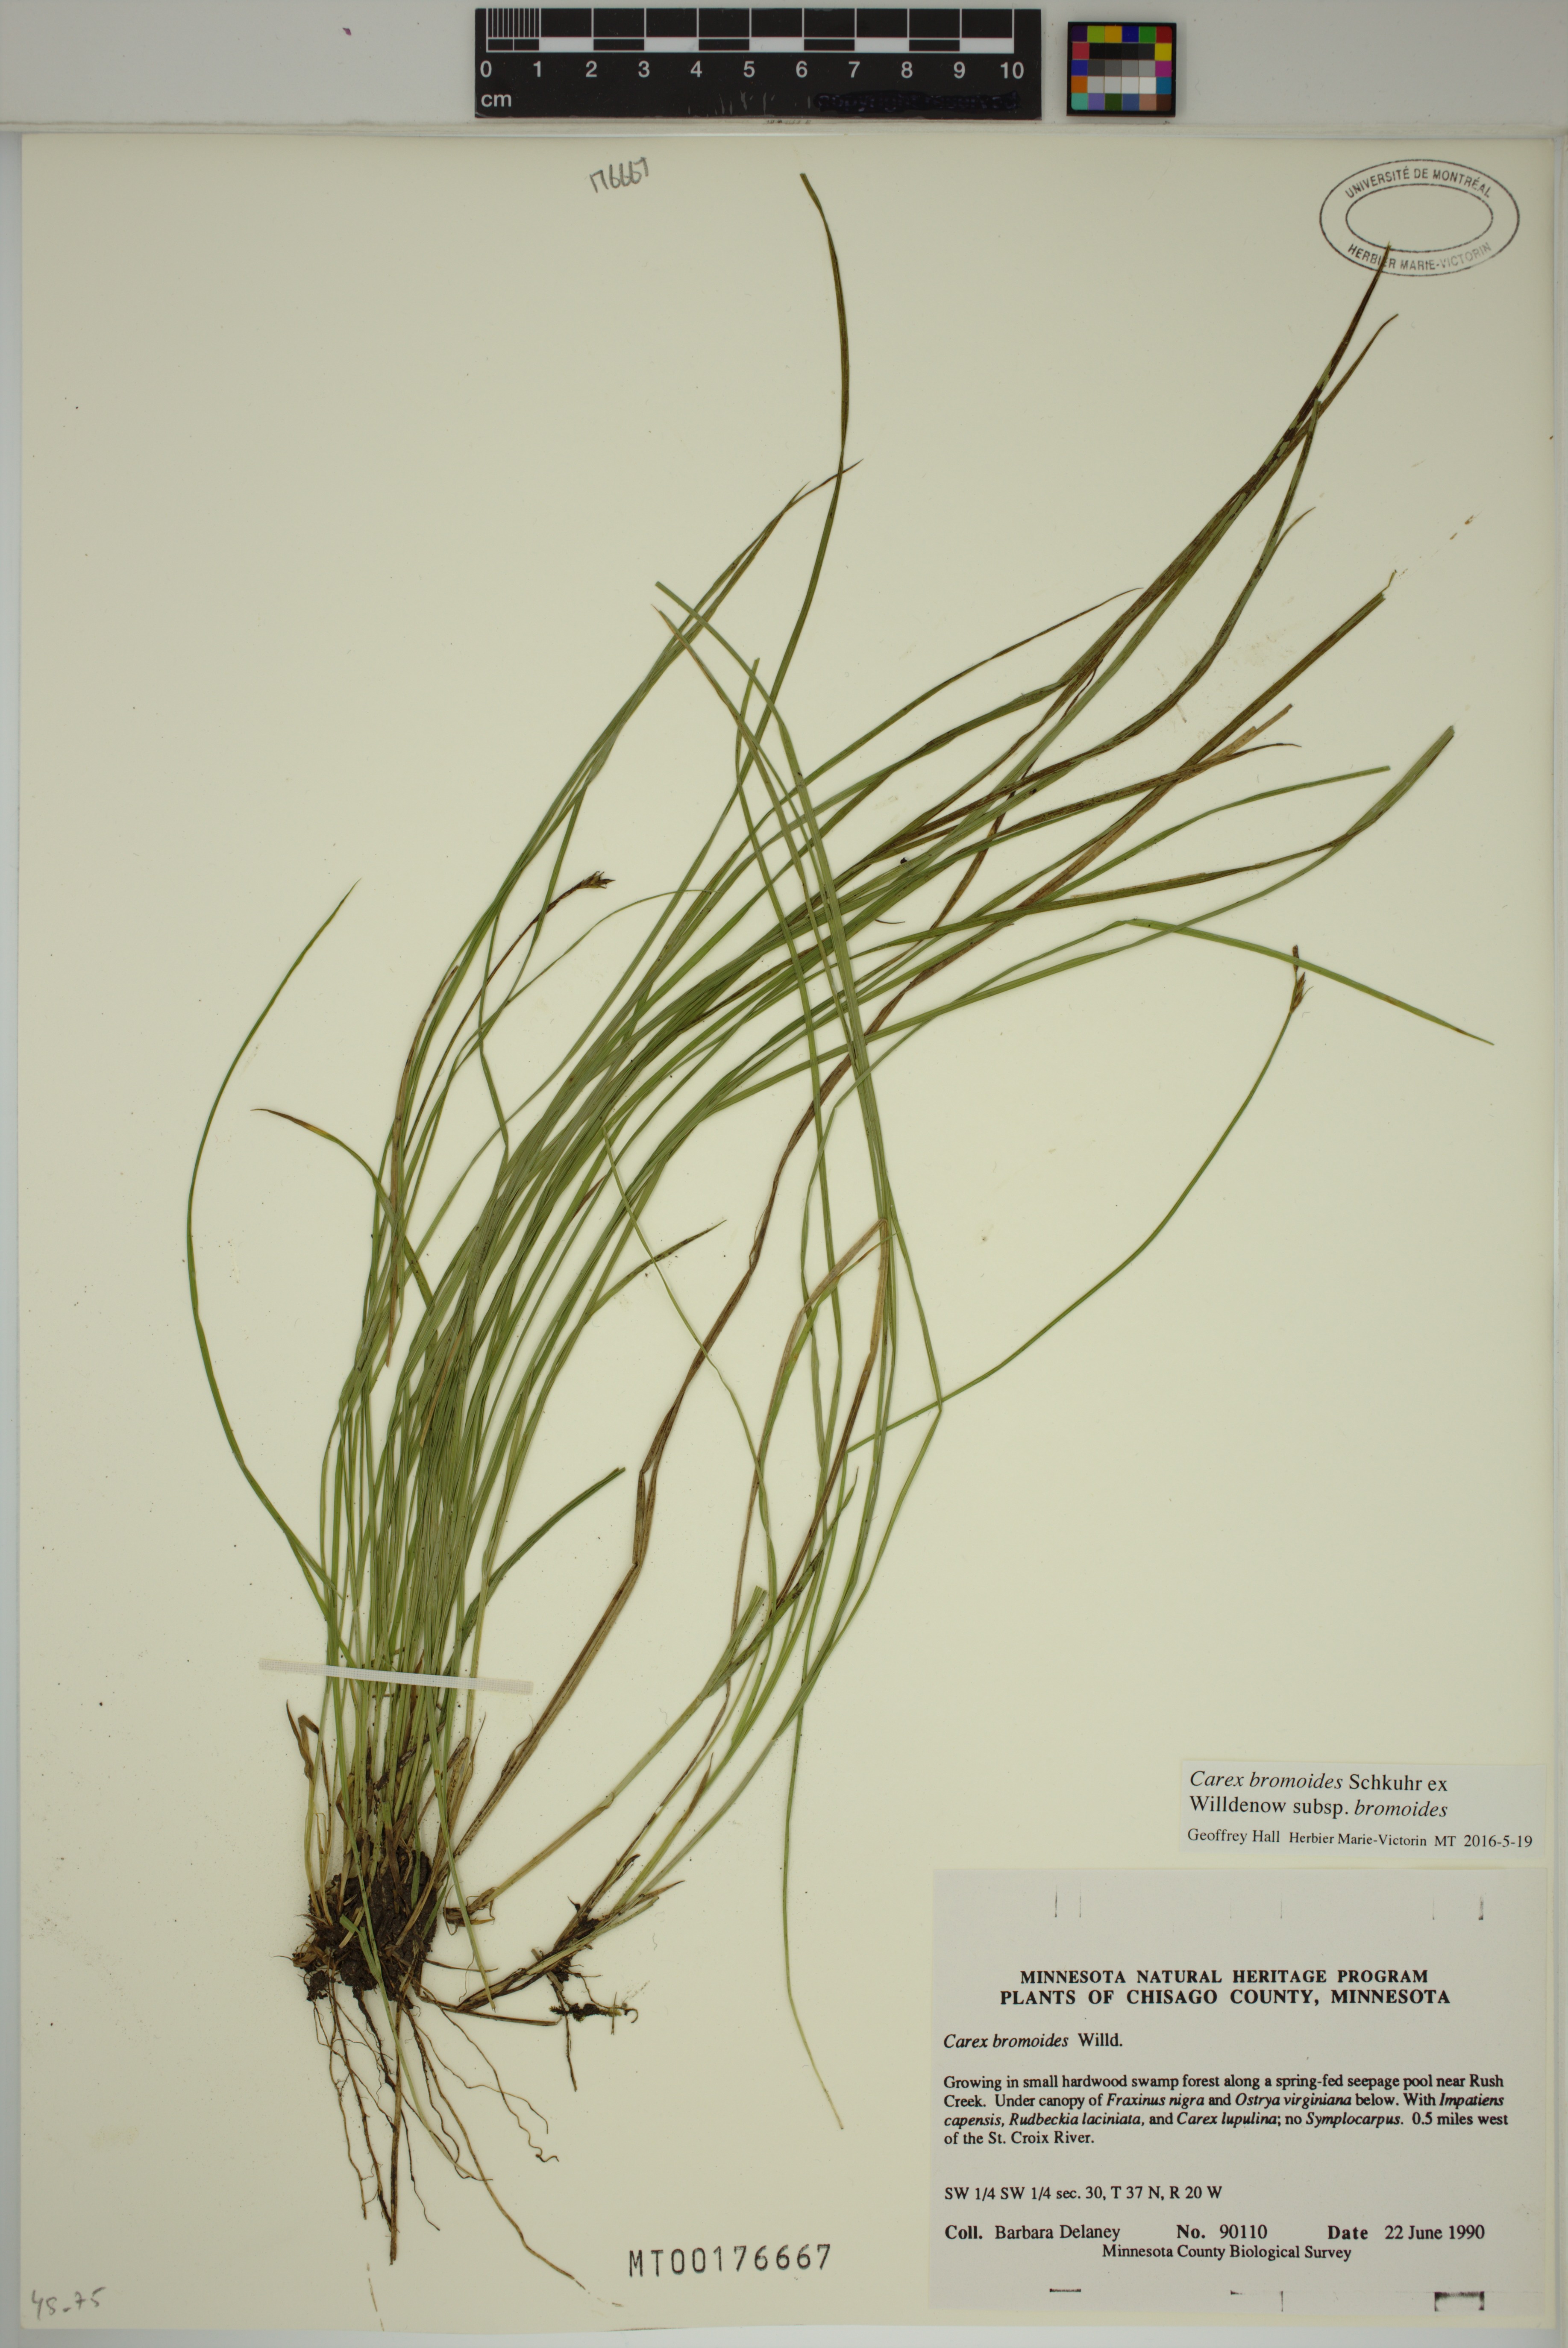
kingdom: Plantae
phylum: Tracheophyta
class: Liliopsida
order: Poales
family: Cyperaceae
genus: Carex
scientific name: Carex bromoides
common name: Brome hummock sedge
